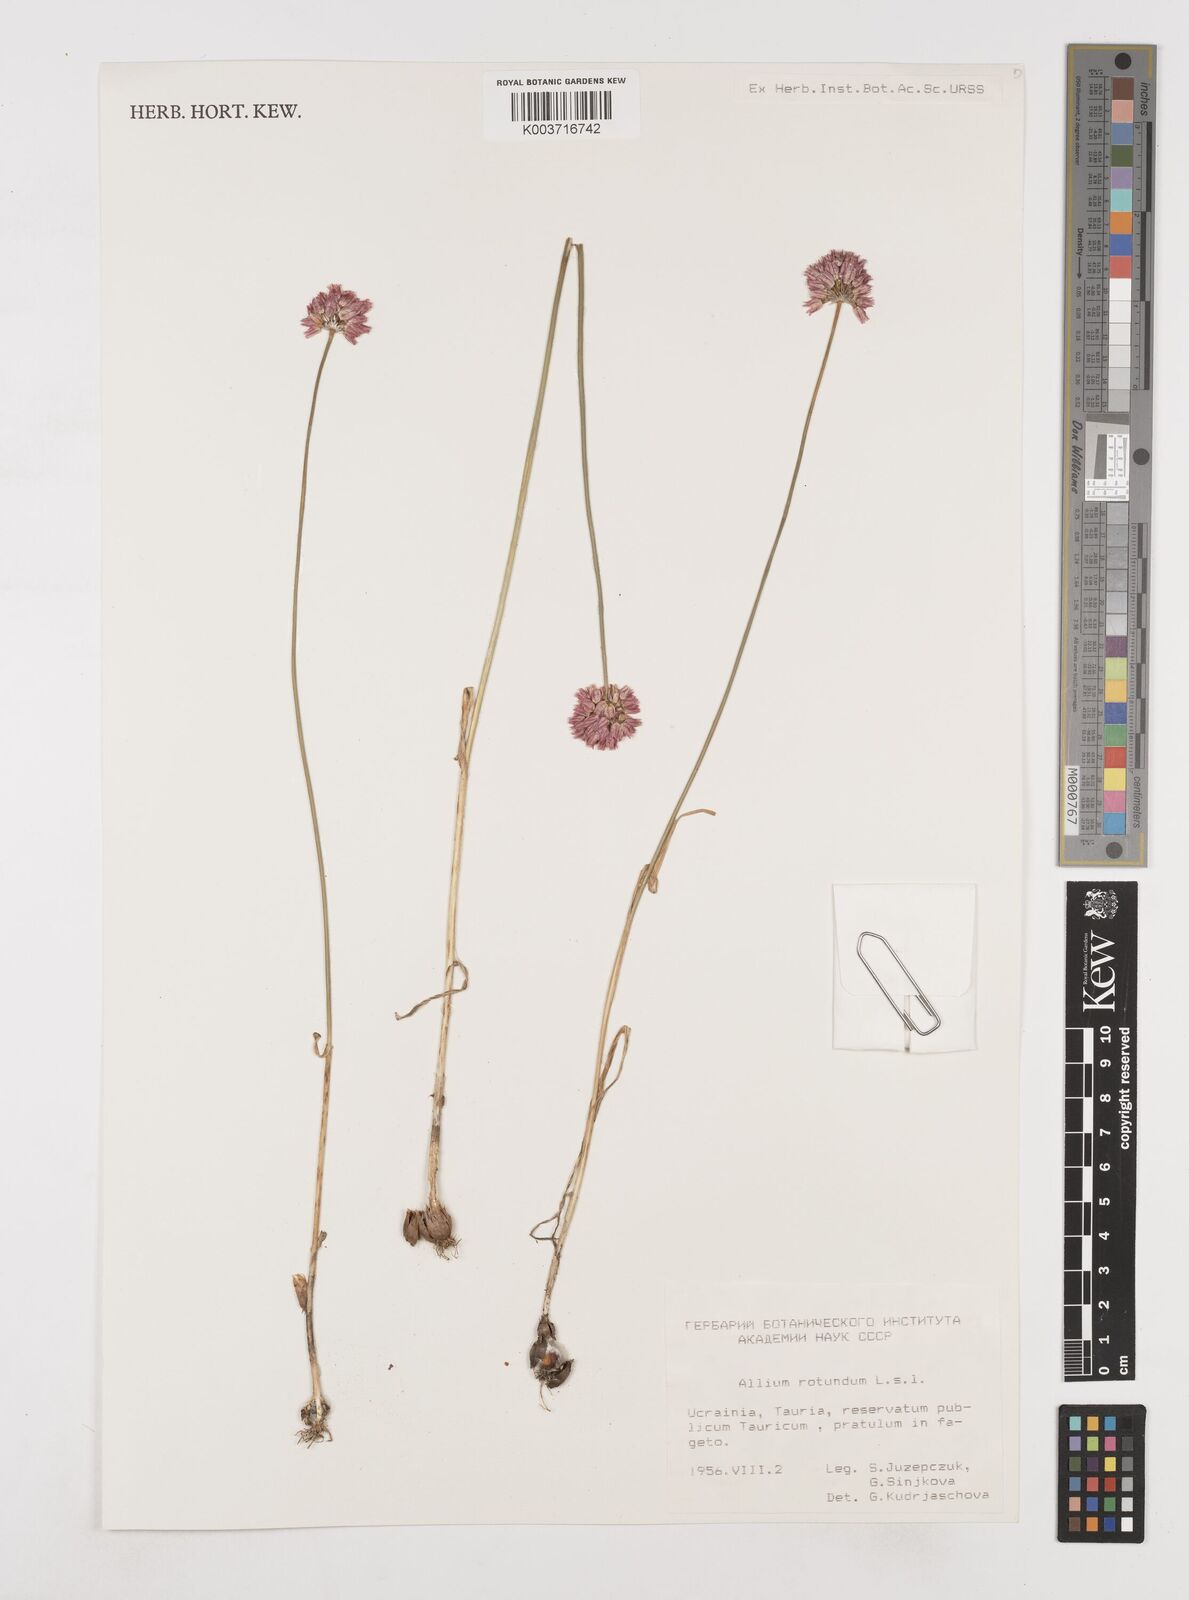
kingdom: Plantae
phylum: Tracheophyta
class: Liliopsida
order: Asparagales
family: Amaryllidaceae
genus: Allium
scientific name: Allium rotundum
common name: Sand leek
